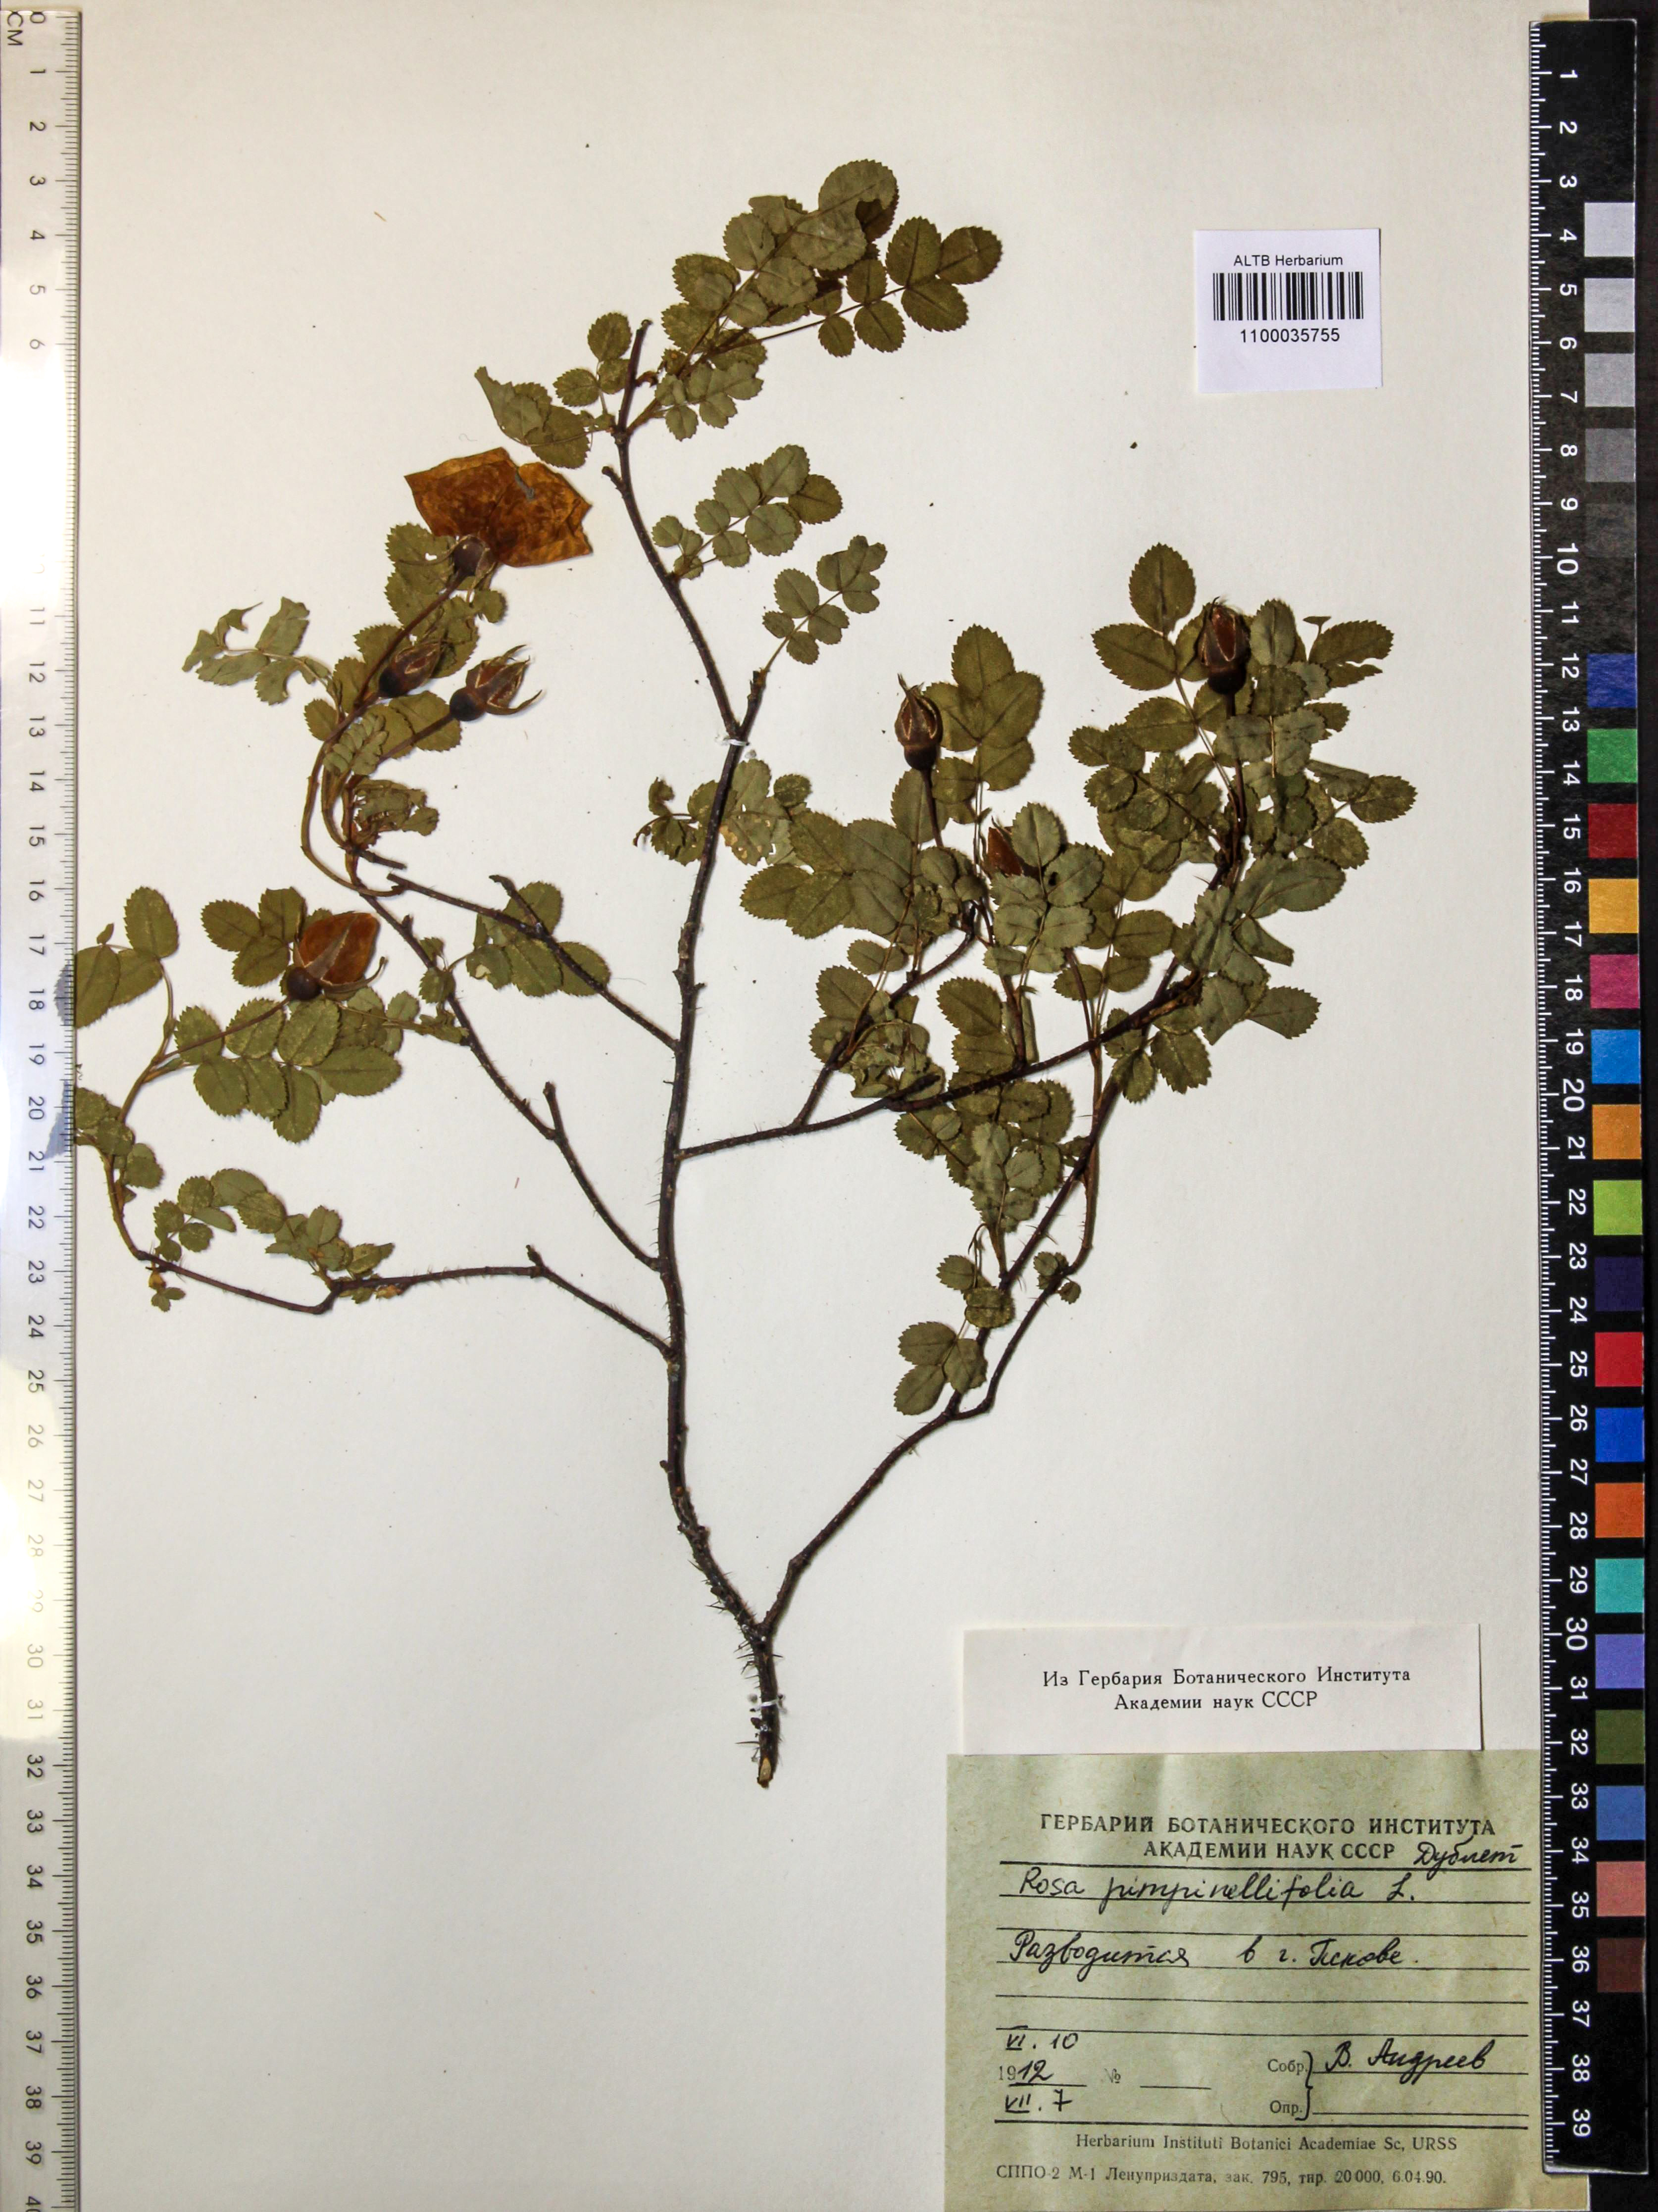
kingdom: Plantae
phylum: Tracheophyta
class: Magnoliopsida
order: Rosales
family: Rosaceae
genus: Rosa
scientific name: Rosa spinosissima
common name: Burnet rose
